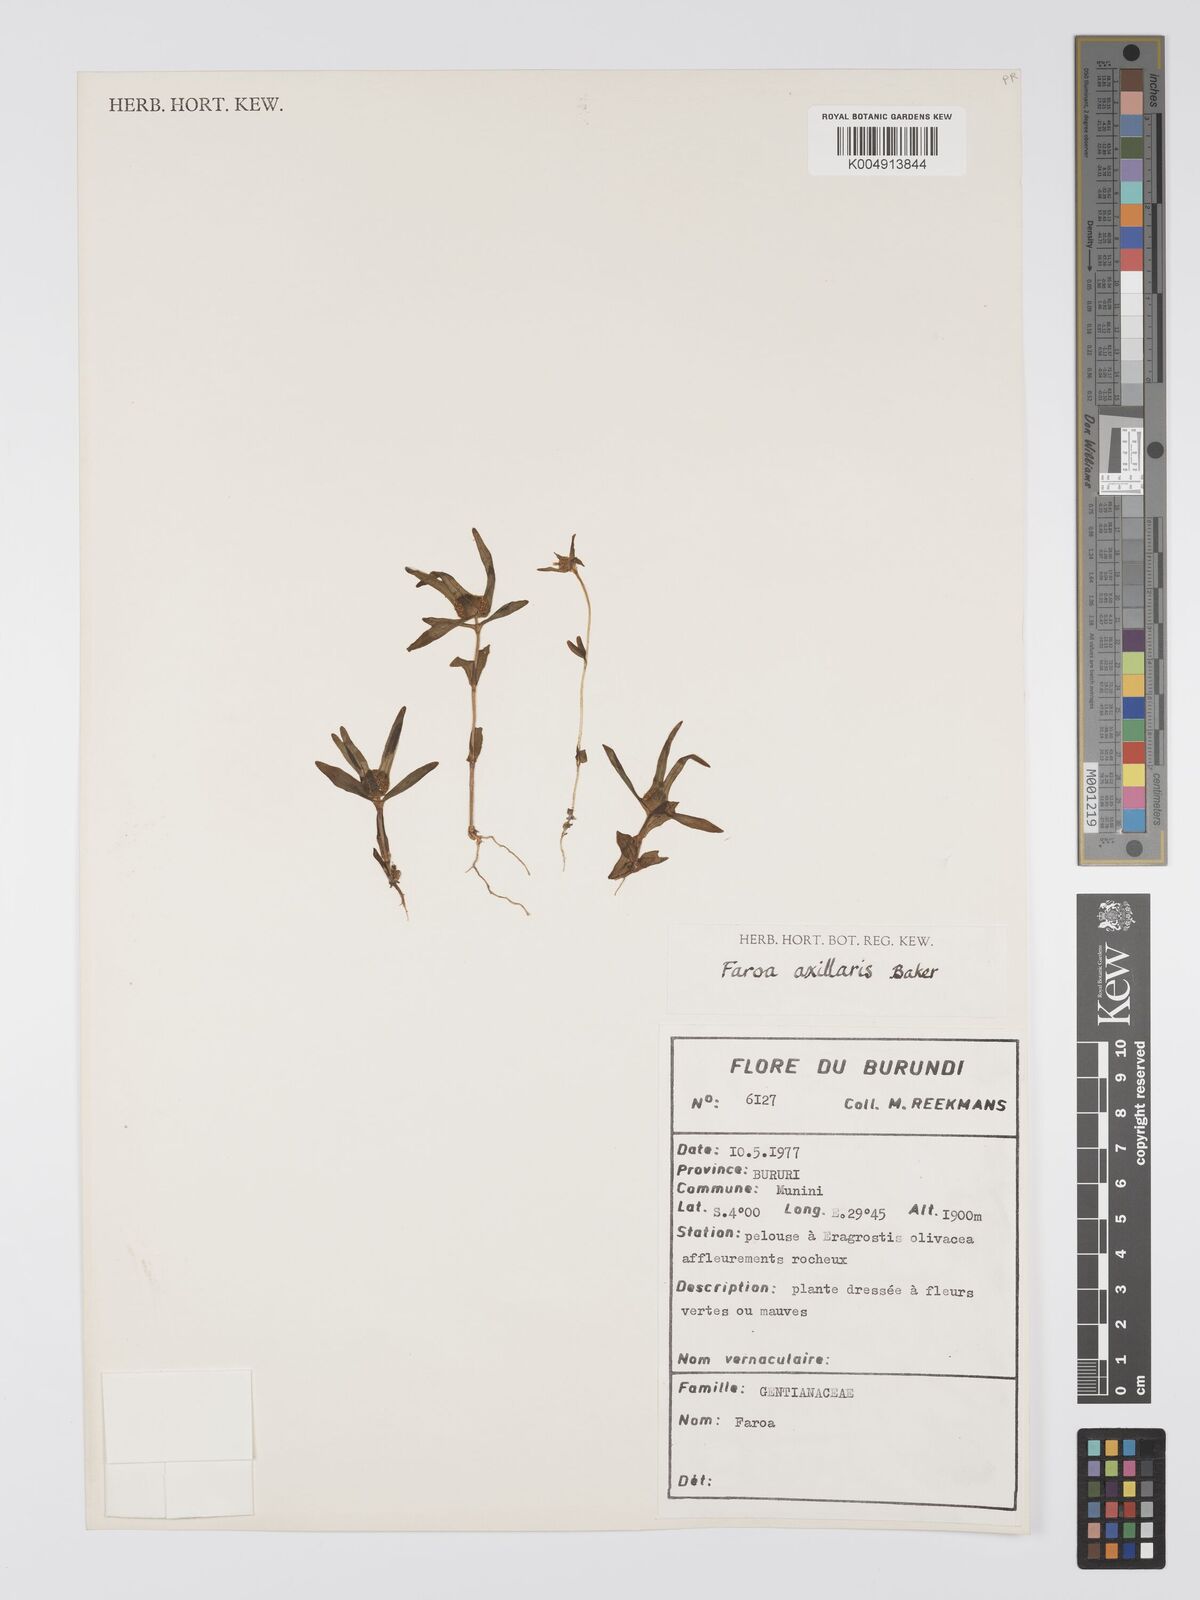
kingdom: Plantae
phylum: Tracheophyta
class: Magnoliopsida
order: Gentianales
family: Gentianaceae
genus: Faroa
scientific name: Faroa axillaris
